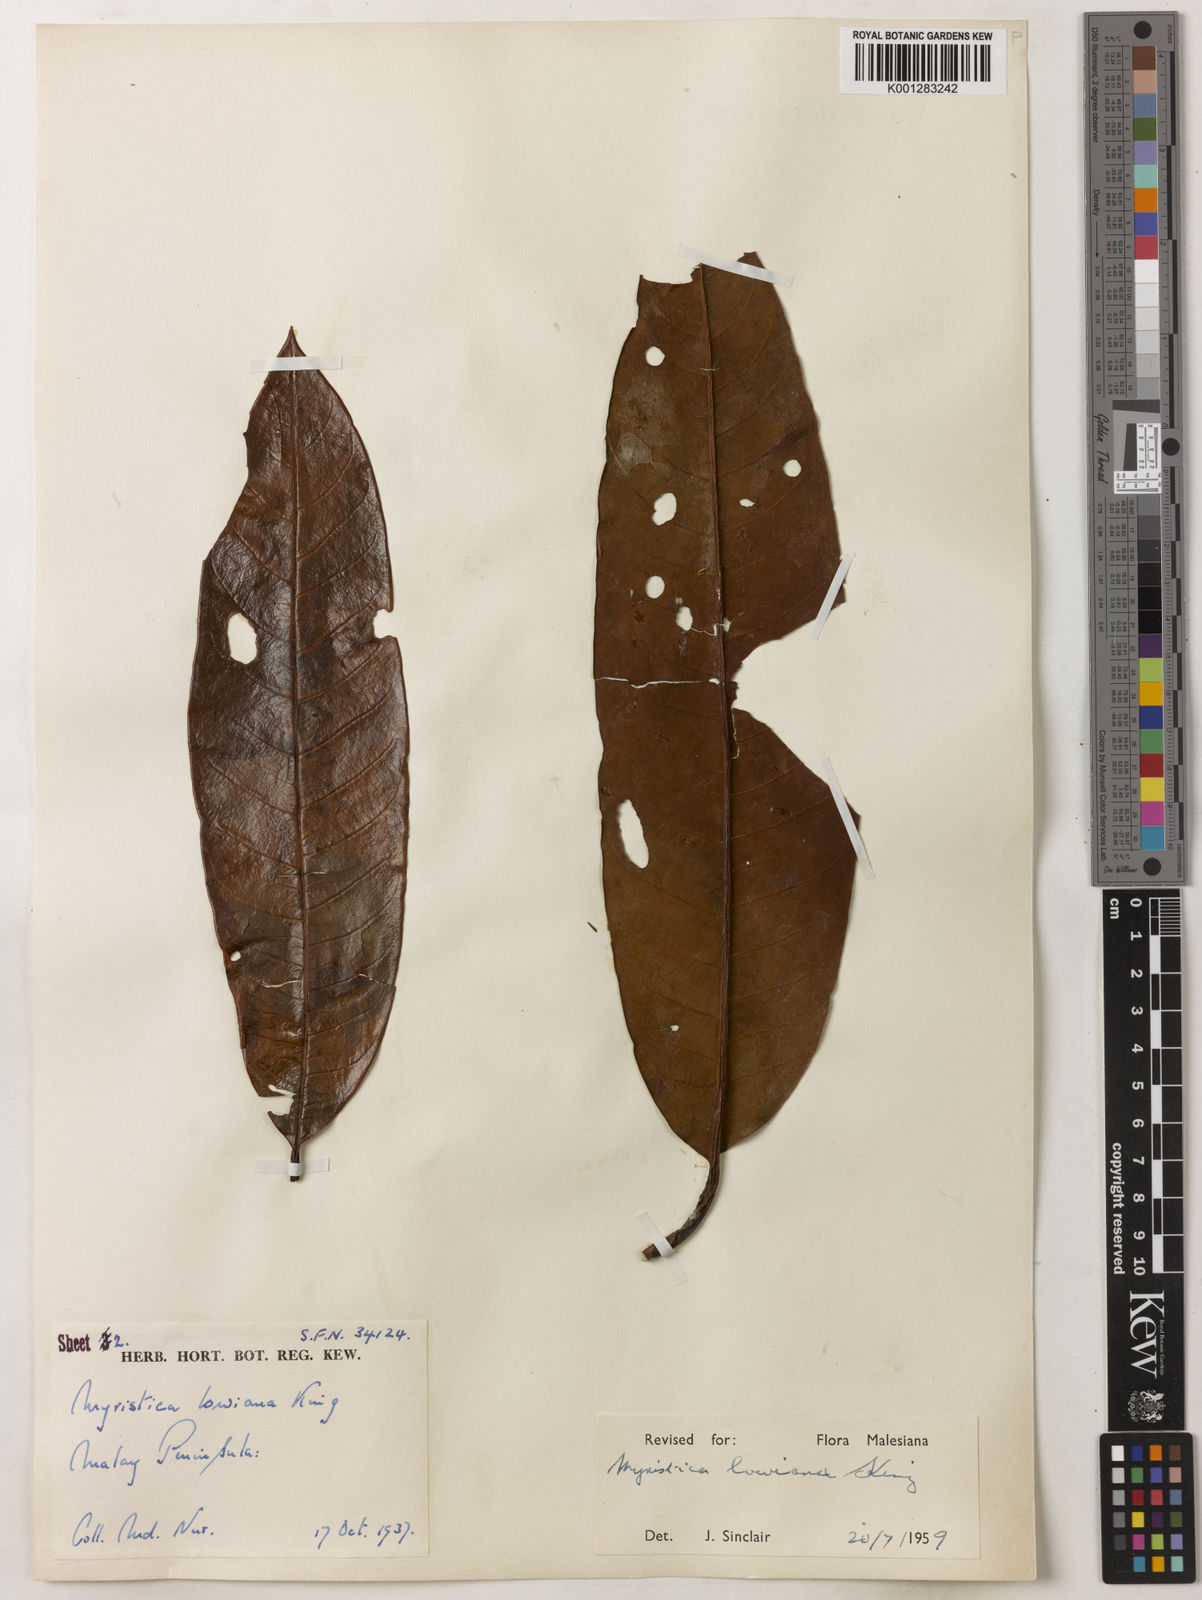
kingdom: Plantae
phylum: Tracheophyta
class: Magnoliopsida
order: Magnoliales
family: Myristicaceae
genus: Myristica
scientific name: Myristica lowiana
